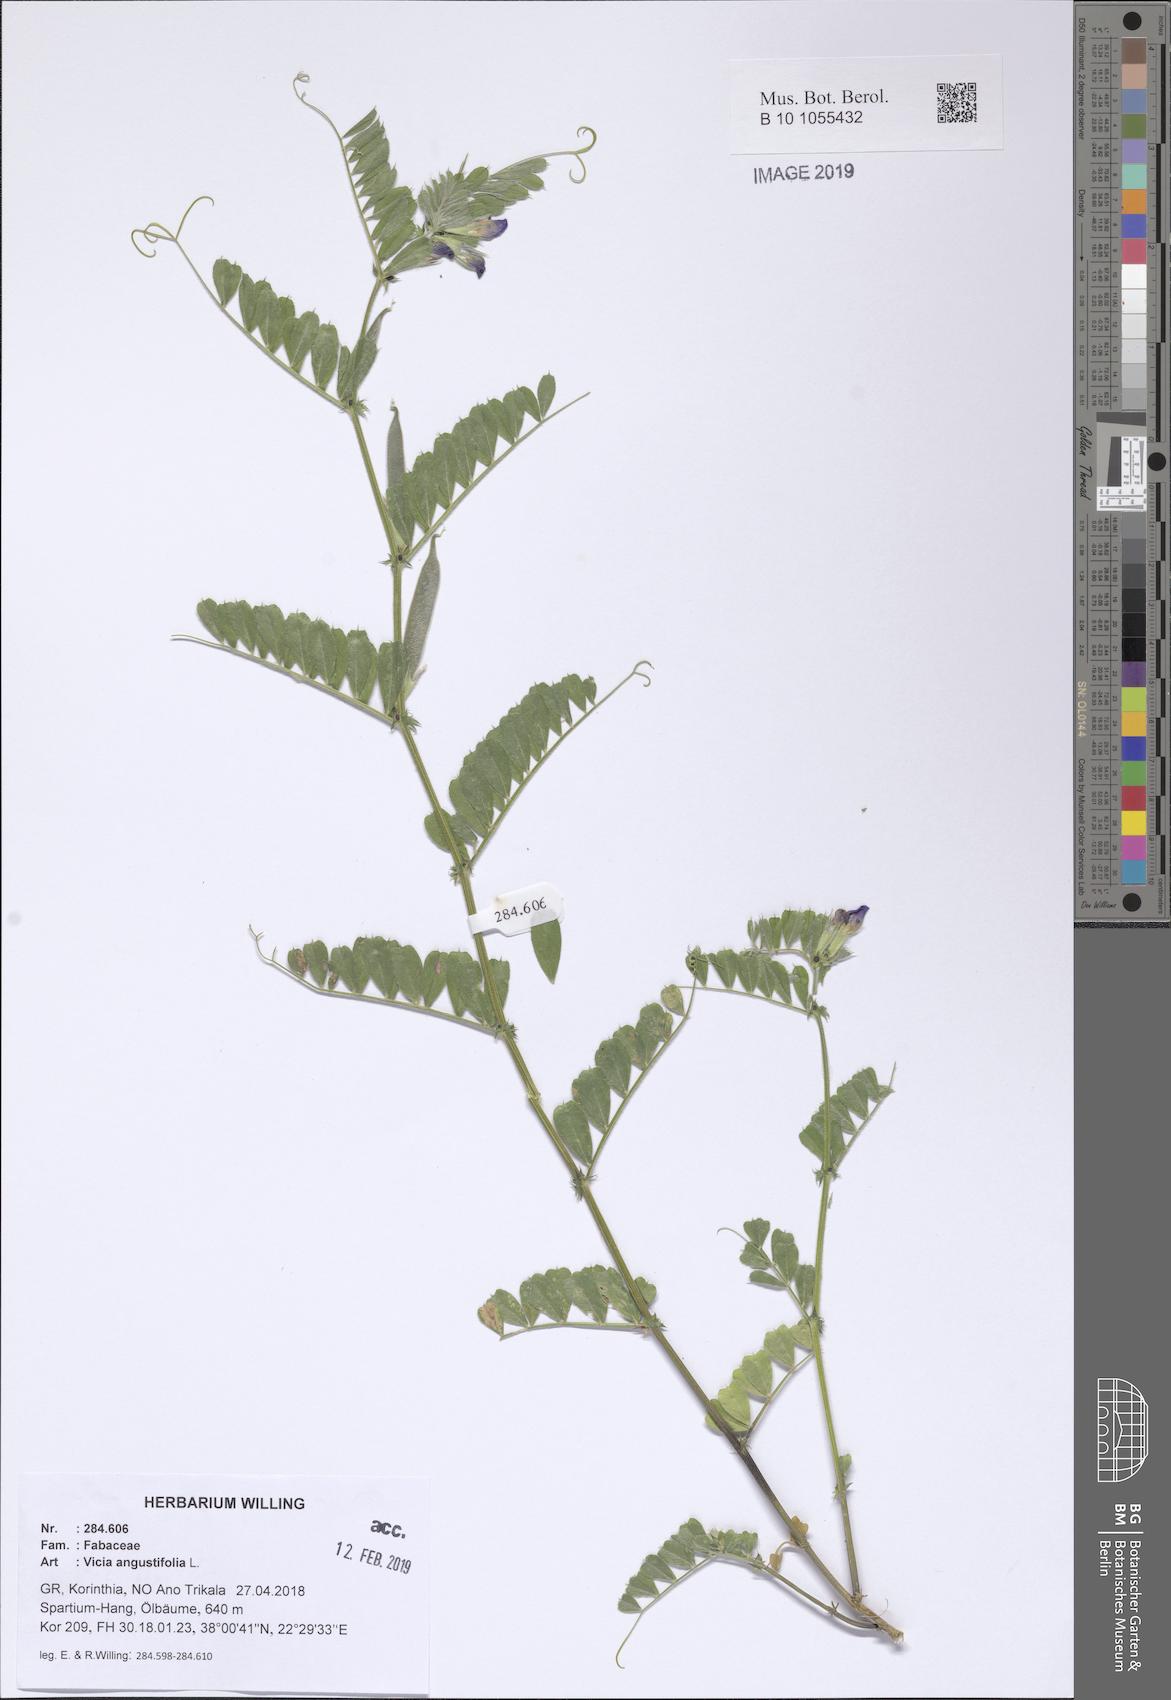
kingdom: Plantae
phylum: Tracheophyta
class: Magnoliopsida
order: Fabales
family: Fabaceae
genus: Vicia
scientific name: Vicia sativa
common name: Garden vetch
